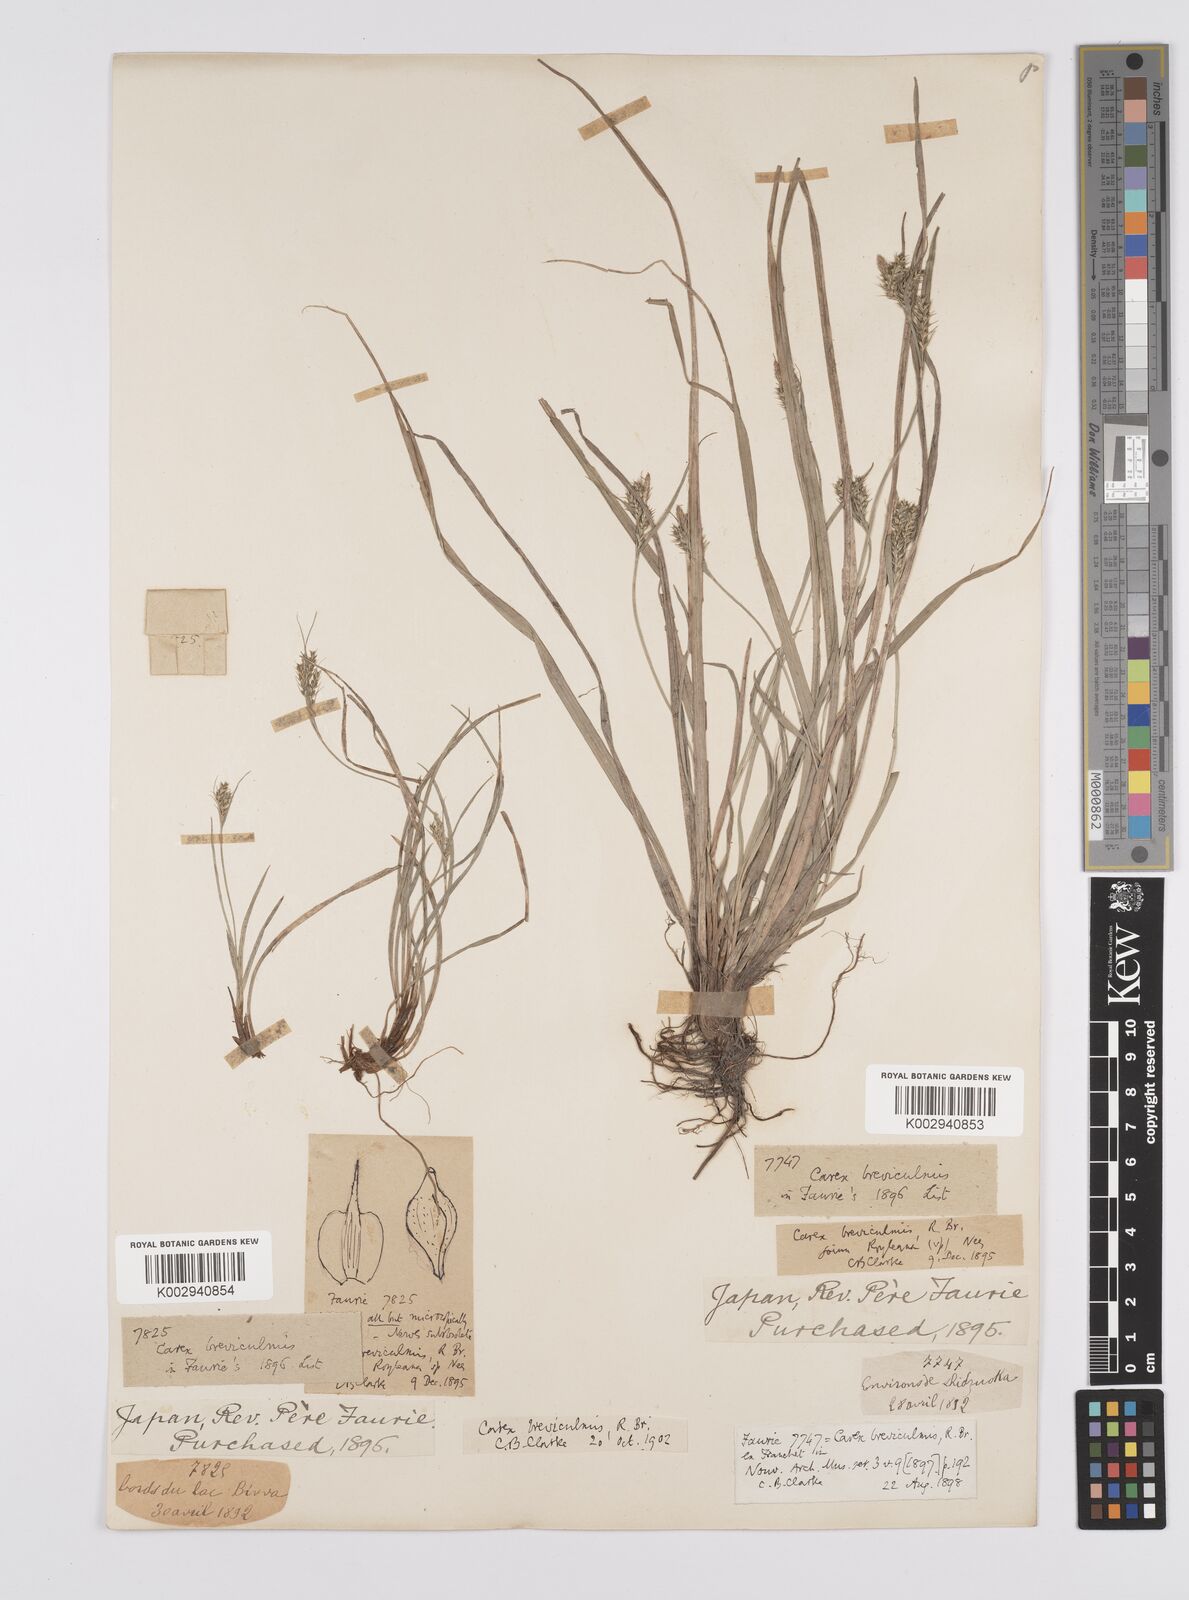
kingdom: Plantae
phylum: Tracheophyta
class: Liliopsida
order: Poales
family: Cyperaceae
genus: Carex
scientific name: Carex breviculmis
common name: Asian shortstem sedge
